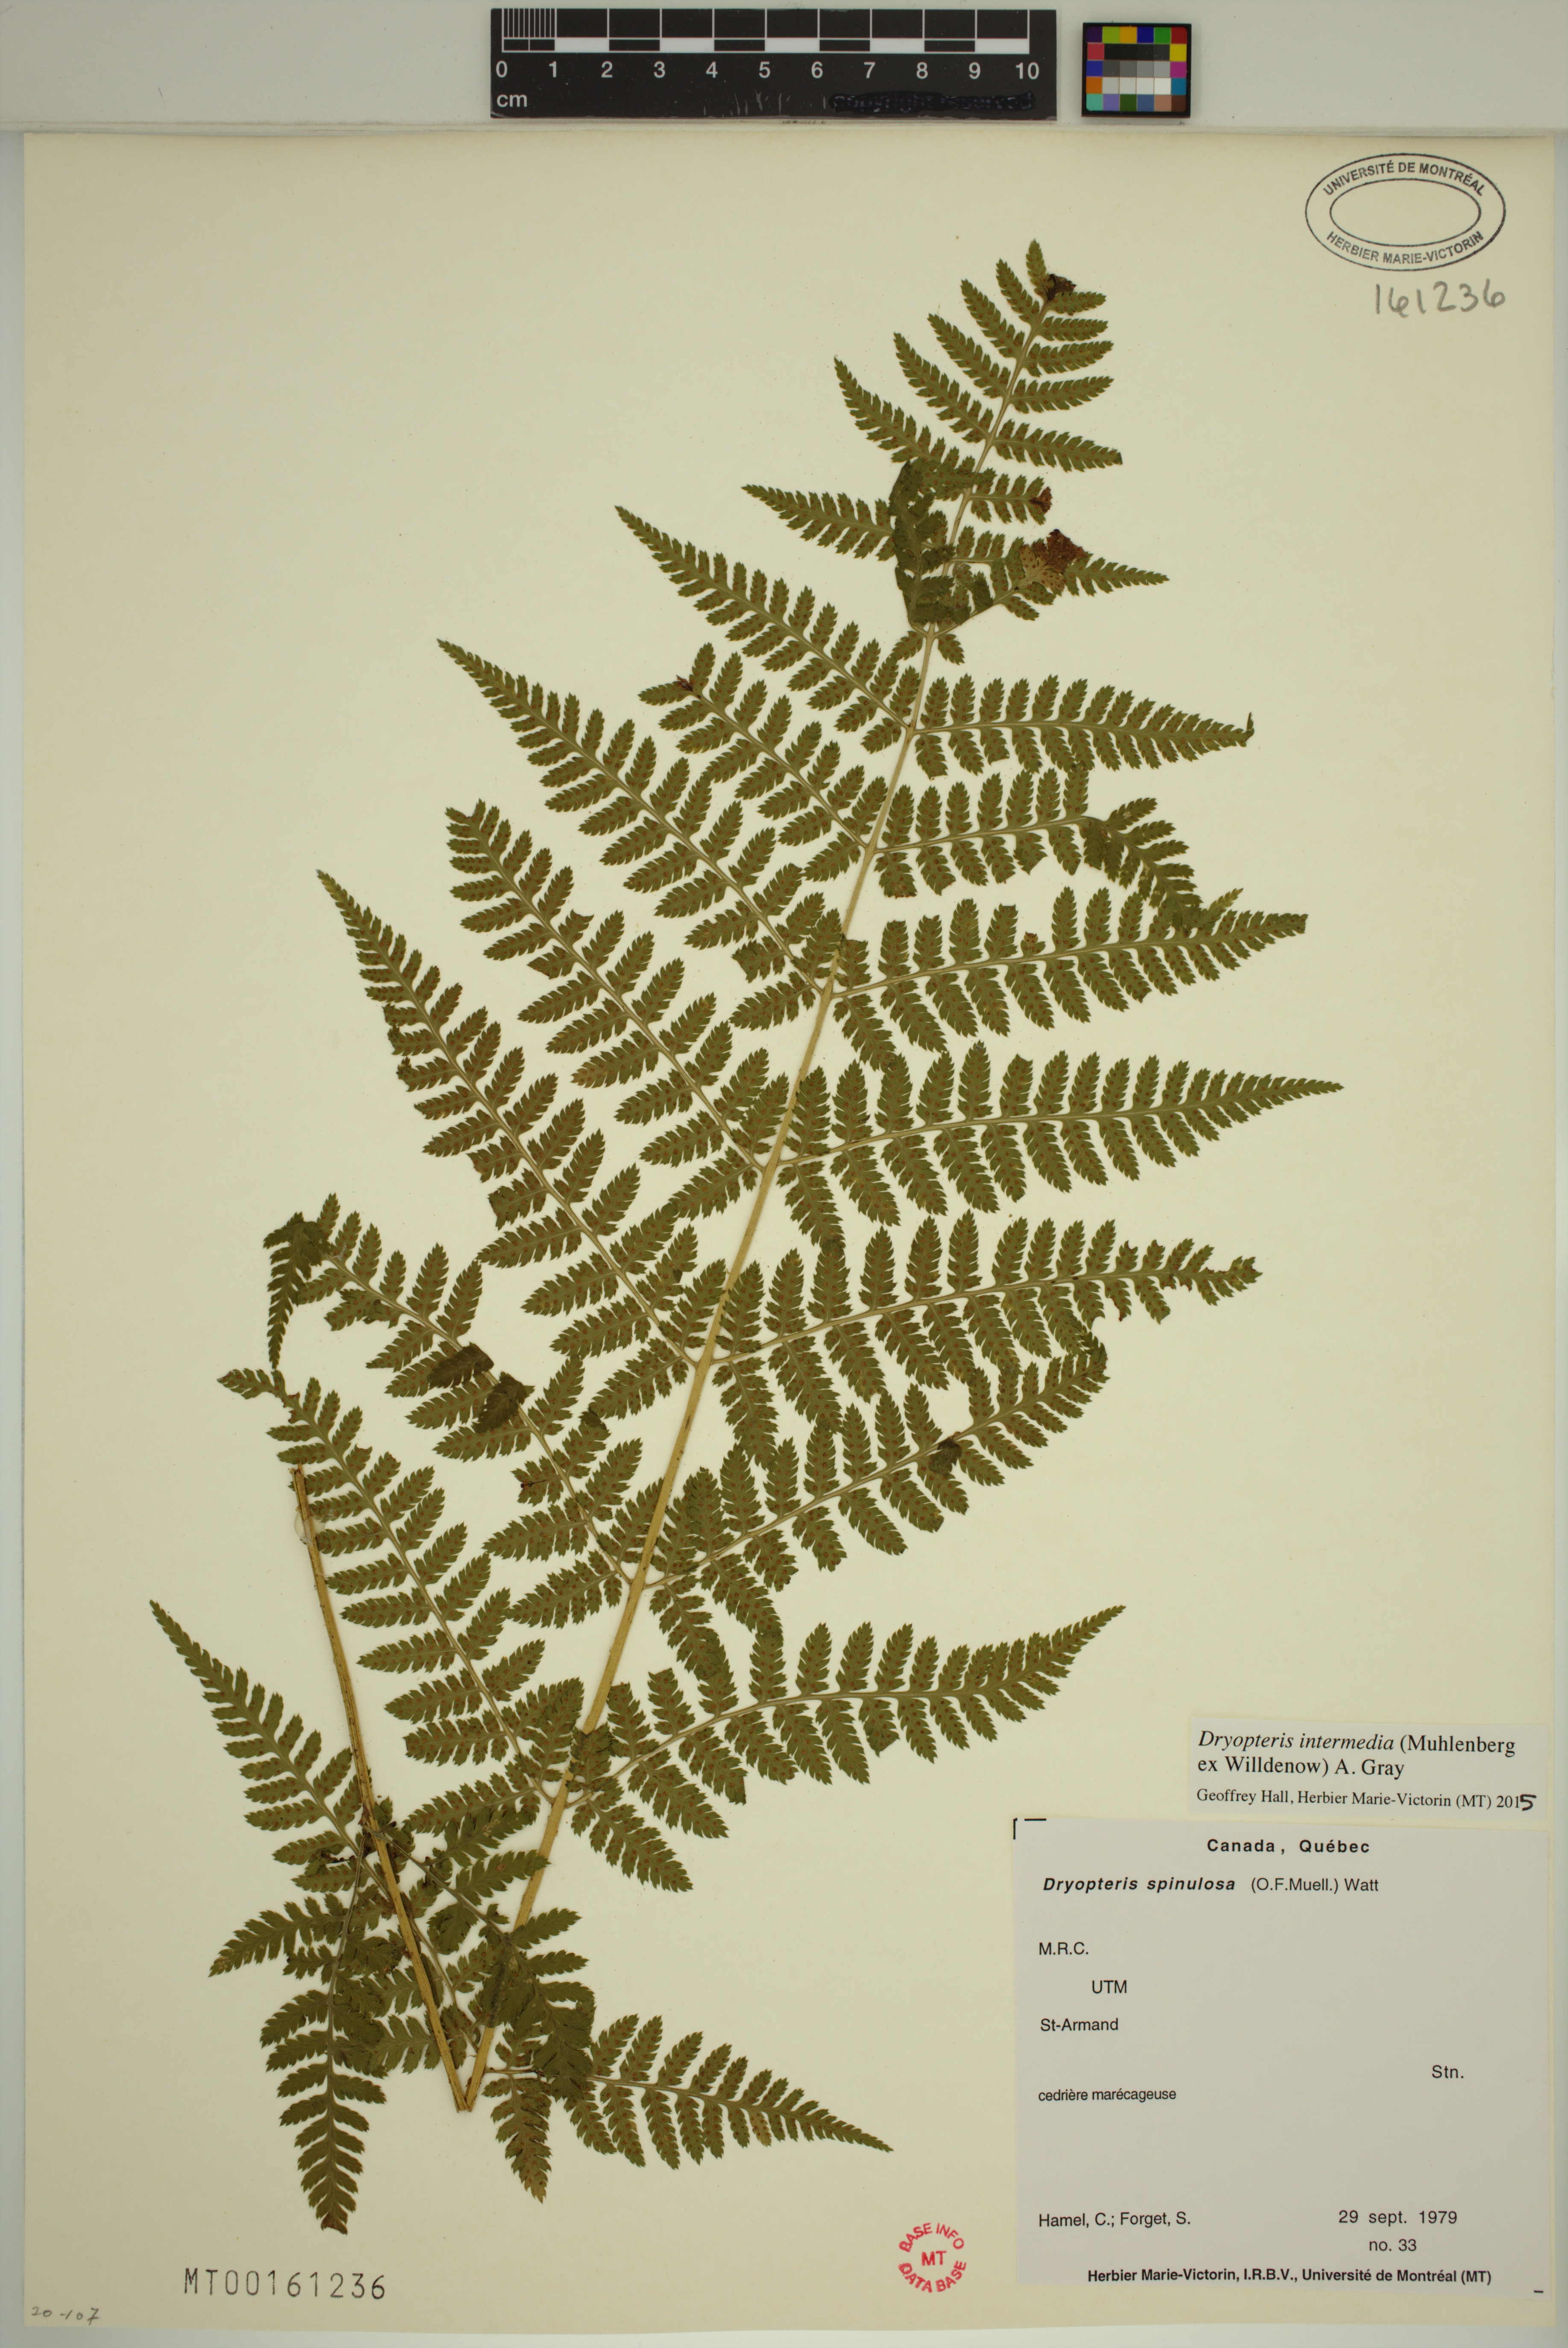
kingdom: Plantae
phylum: Tracheophyta
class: Polypodiopsida
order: Polypodiales
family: Dryopteridaceae
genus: Dryopteris
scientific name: Dryopteris intermedia
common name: Evergreen wood fern
